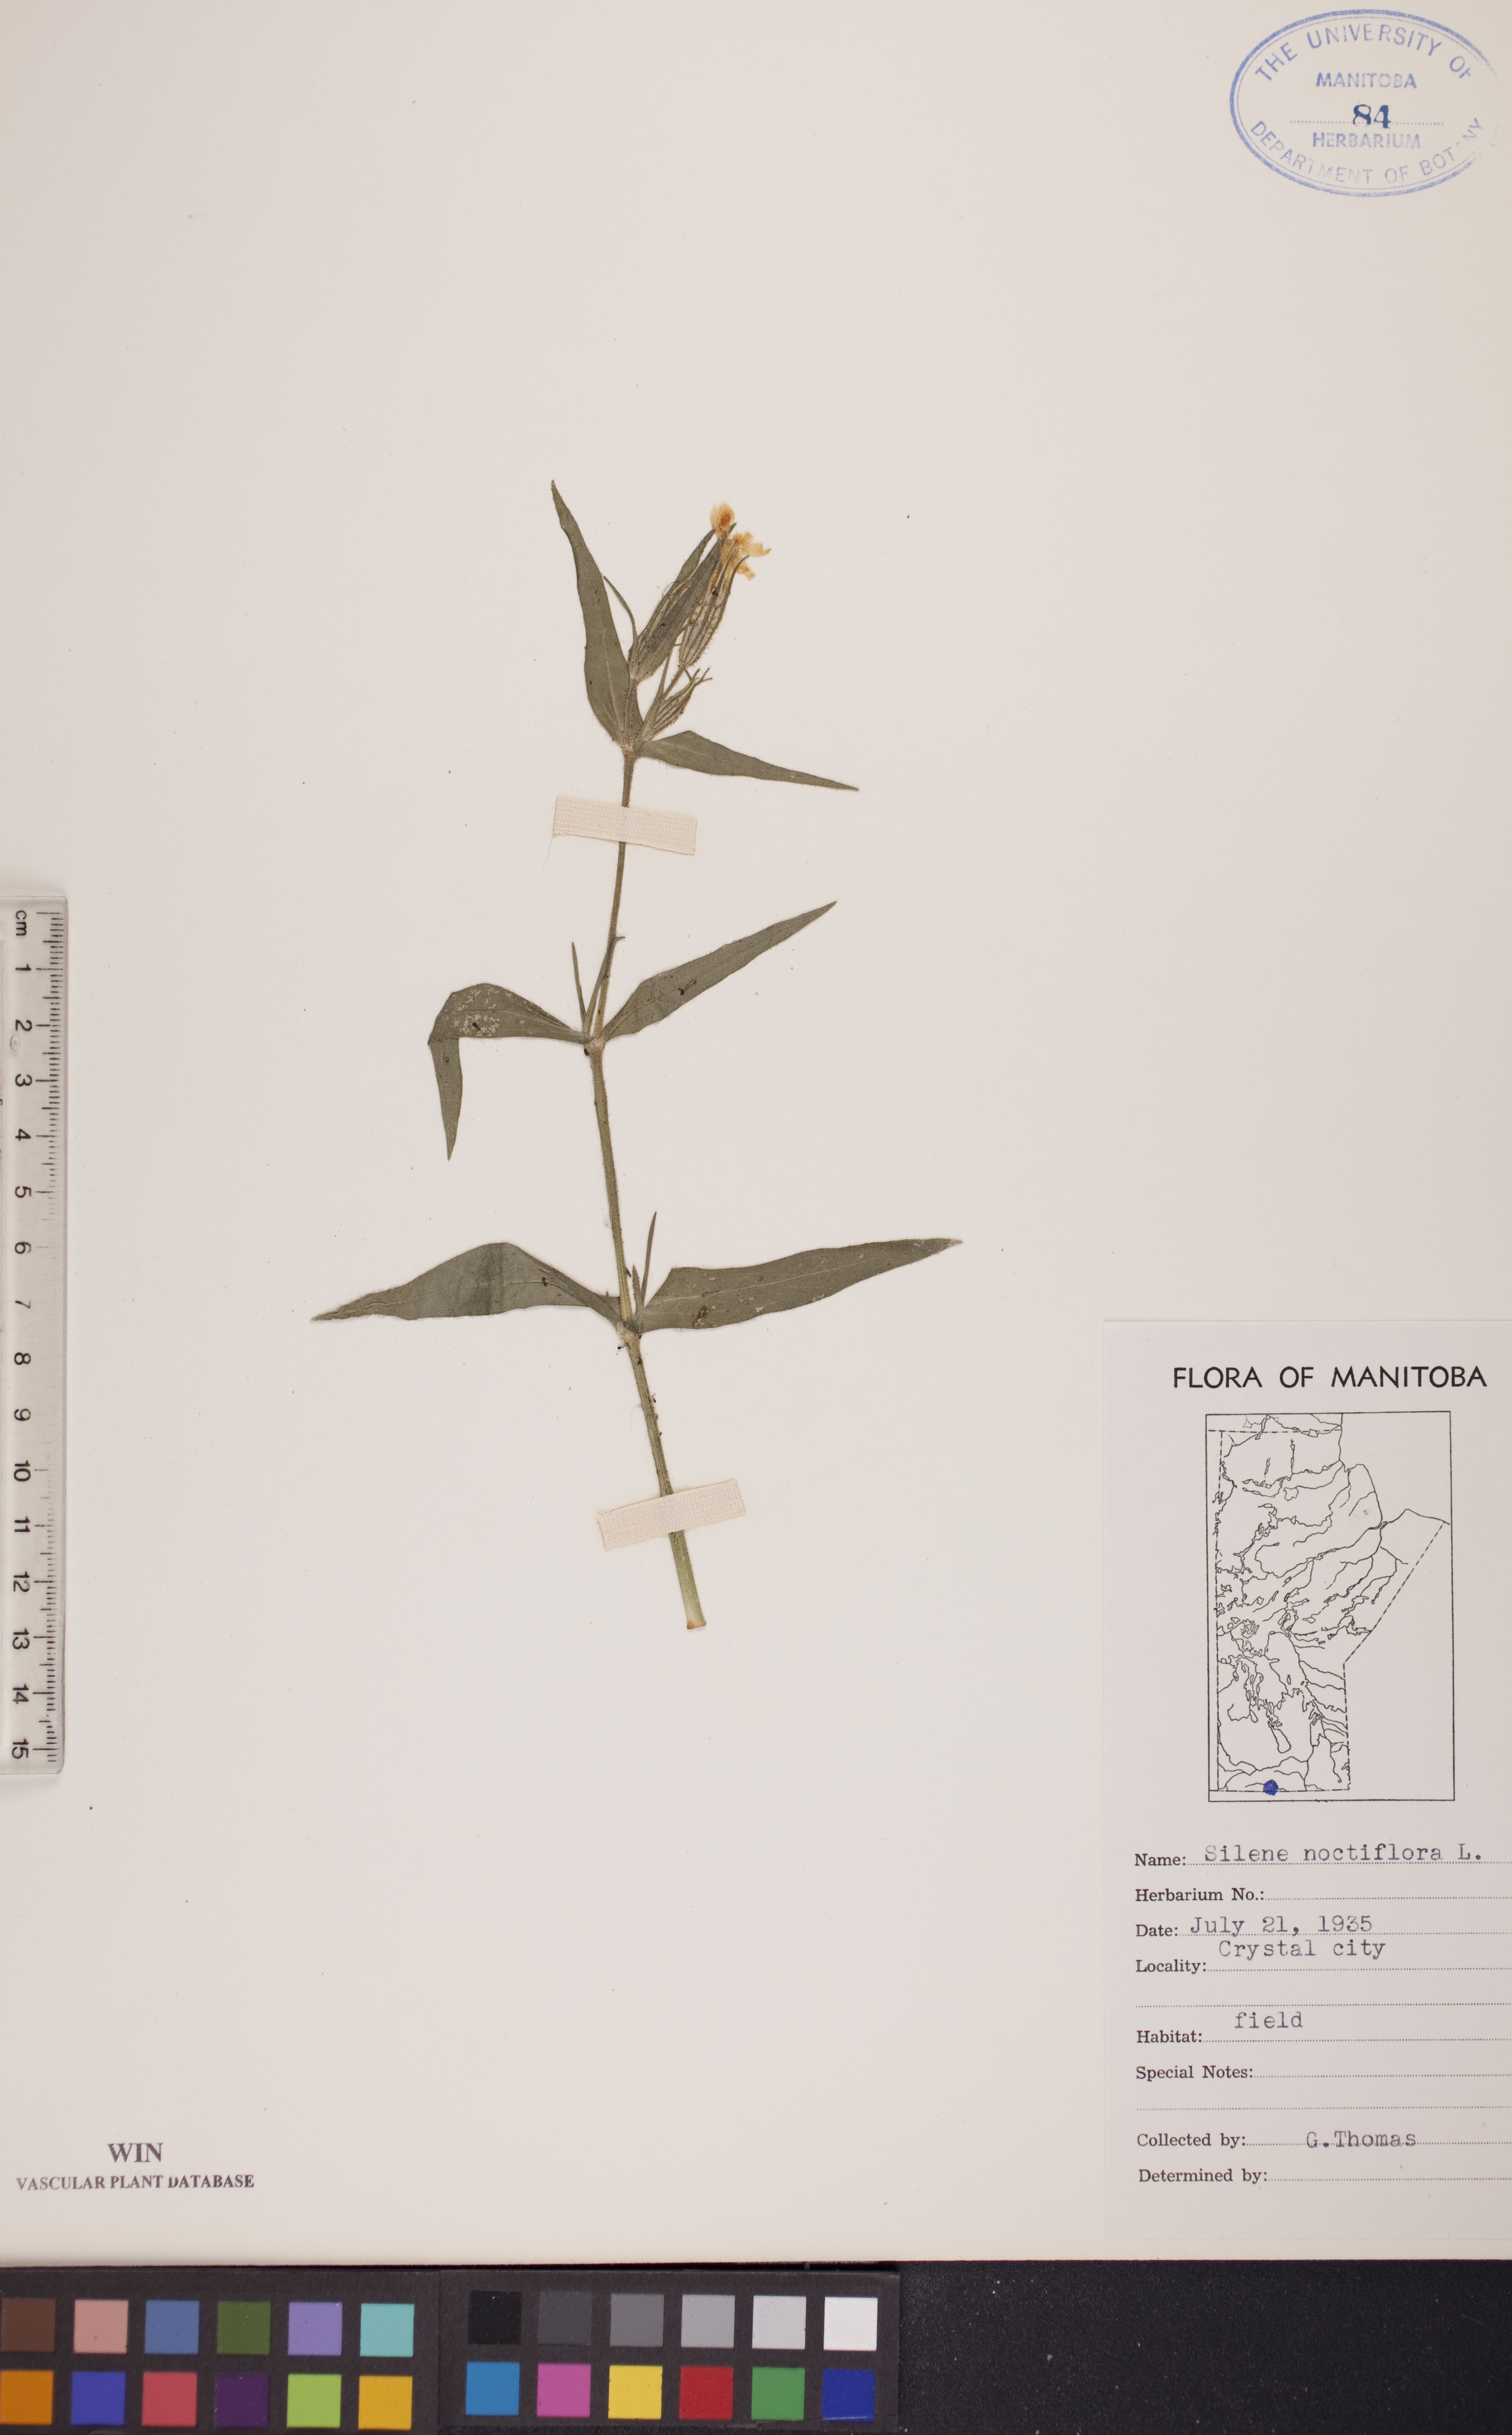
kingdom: Plantae
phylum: Tracheophyta
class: Magnoliopsida
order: Caryophyllales
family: Caryophyllaceae
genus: Silene
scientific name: Silene noctiflora
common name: Night-flowering catchfly
